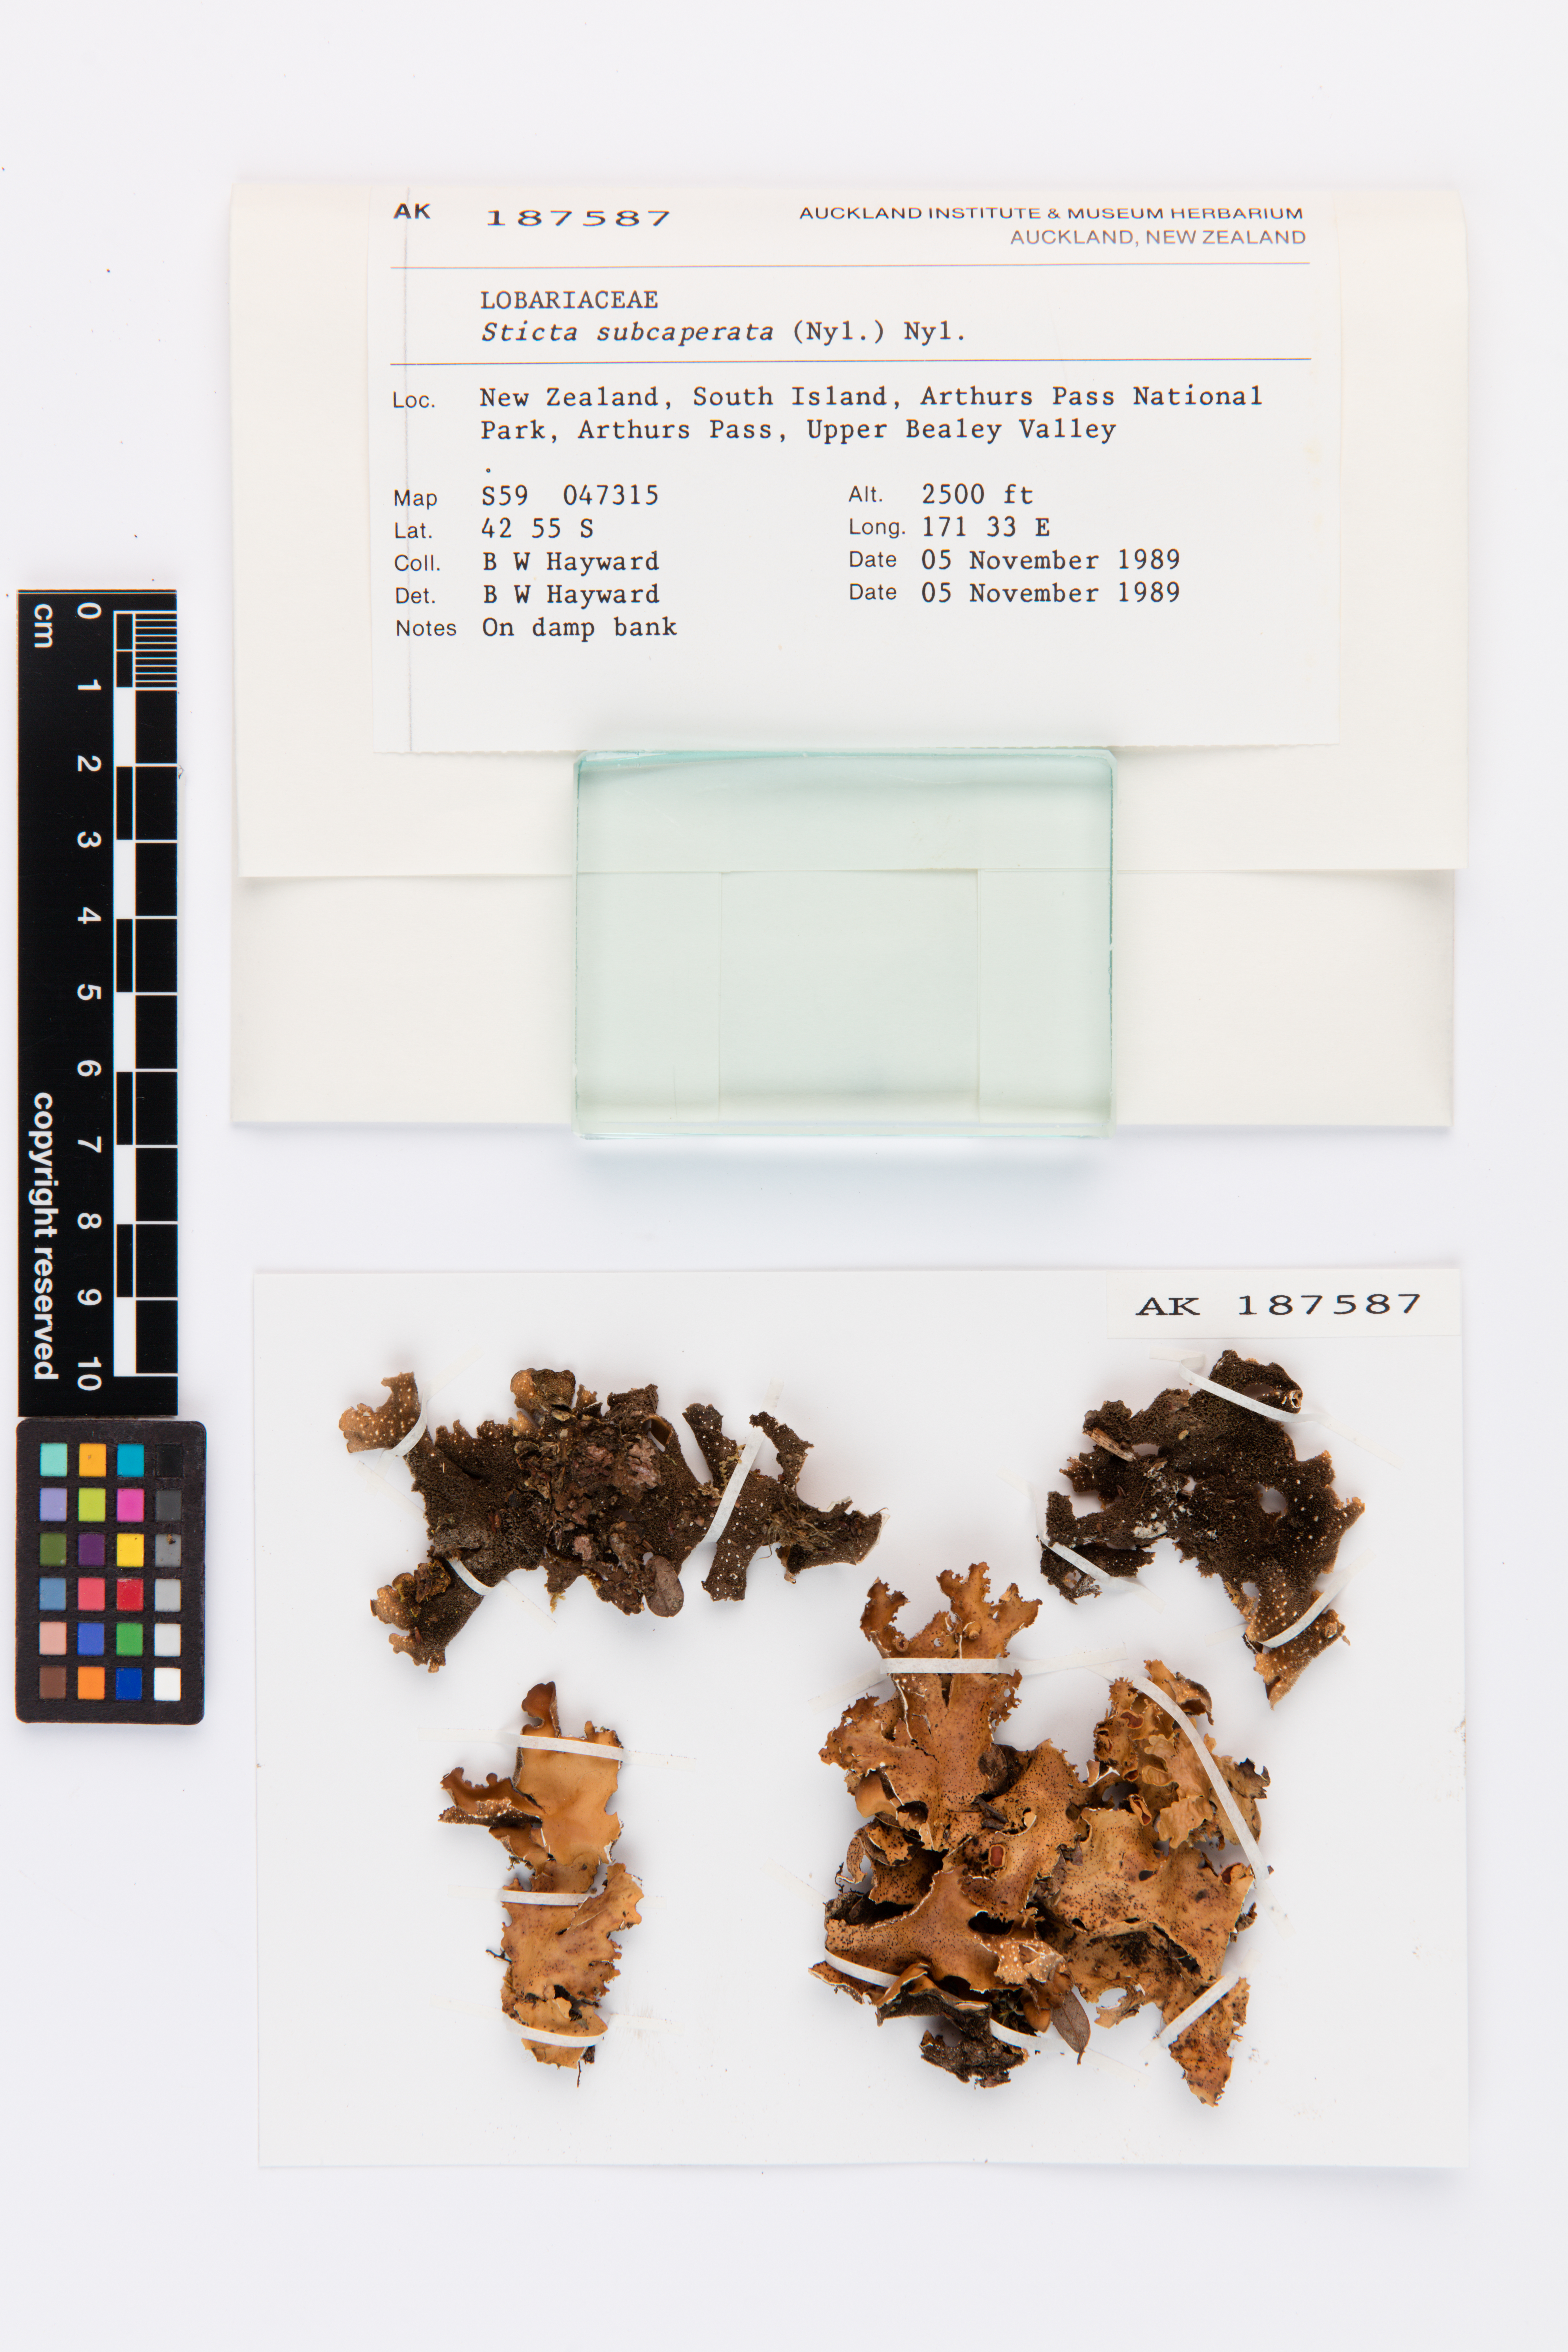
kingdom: Fungi
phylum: Ascomycota
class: Lecanoromycetes
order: Peltigerales
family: Lobariaceae
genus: Sticta
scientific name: Sticta subcaperata
